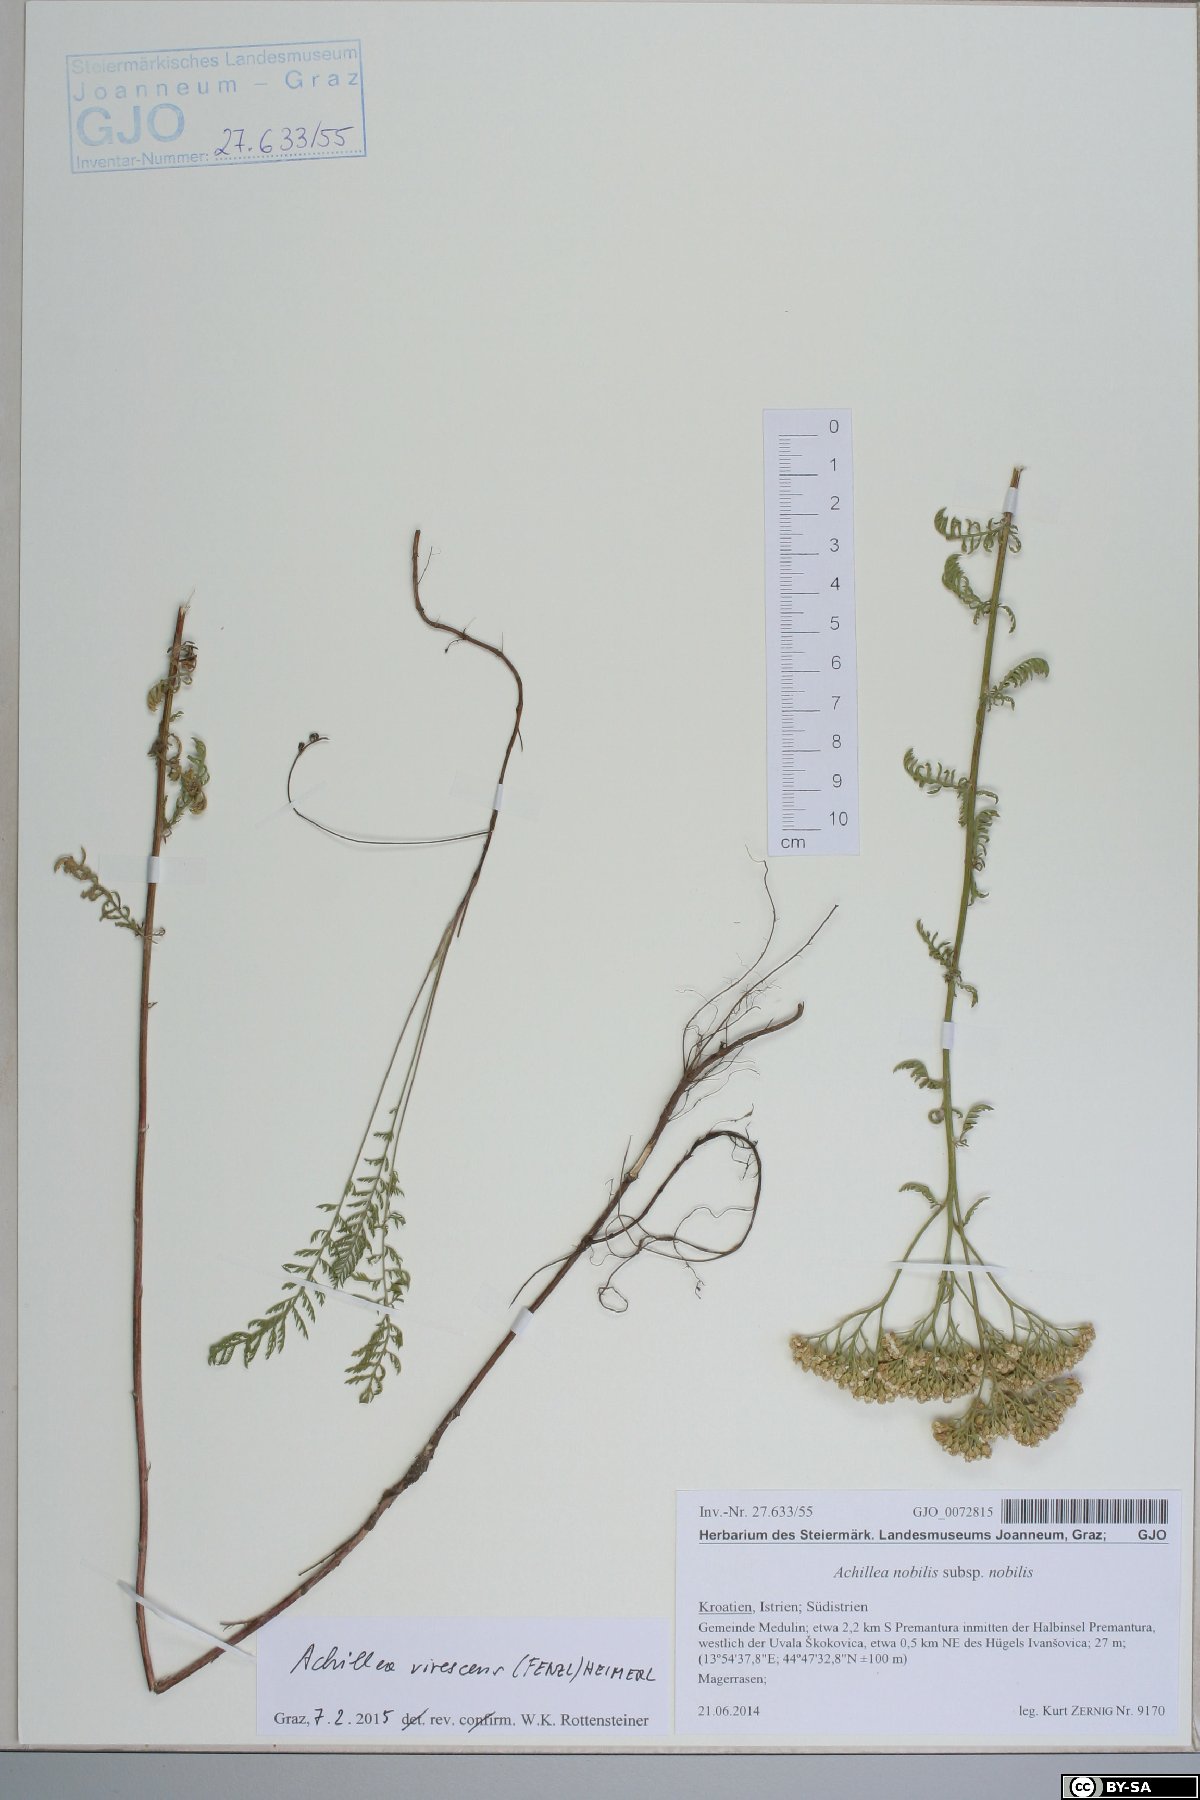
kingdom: Plantae
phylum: Tracheophyta
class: Magnoliopsida
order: Asterales
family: Asteraceae
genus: Achillea
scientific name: Achillea virescens
